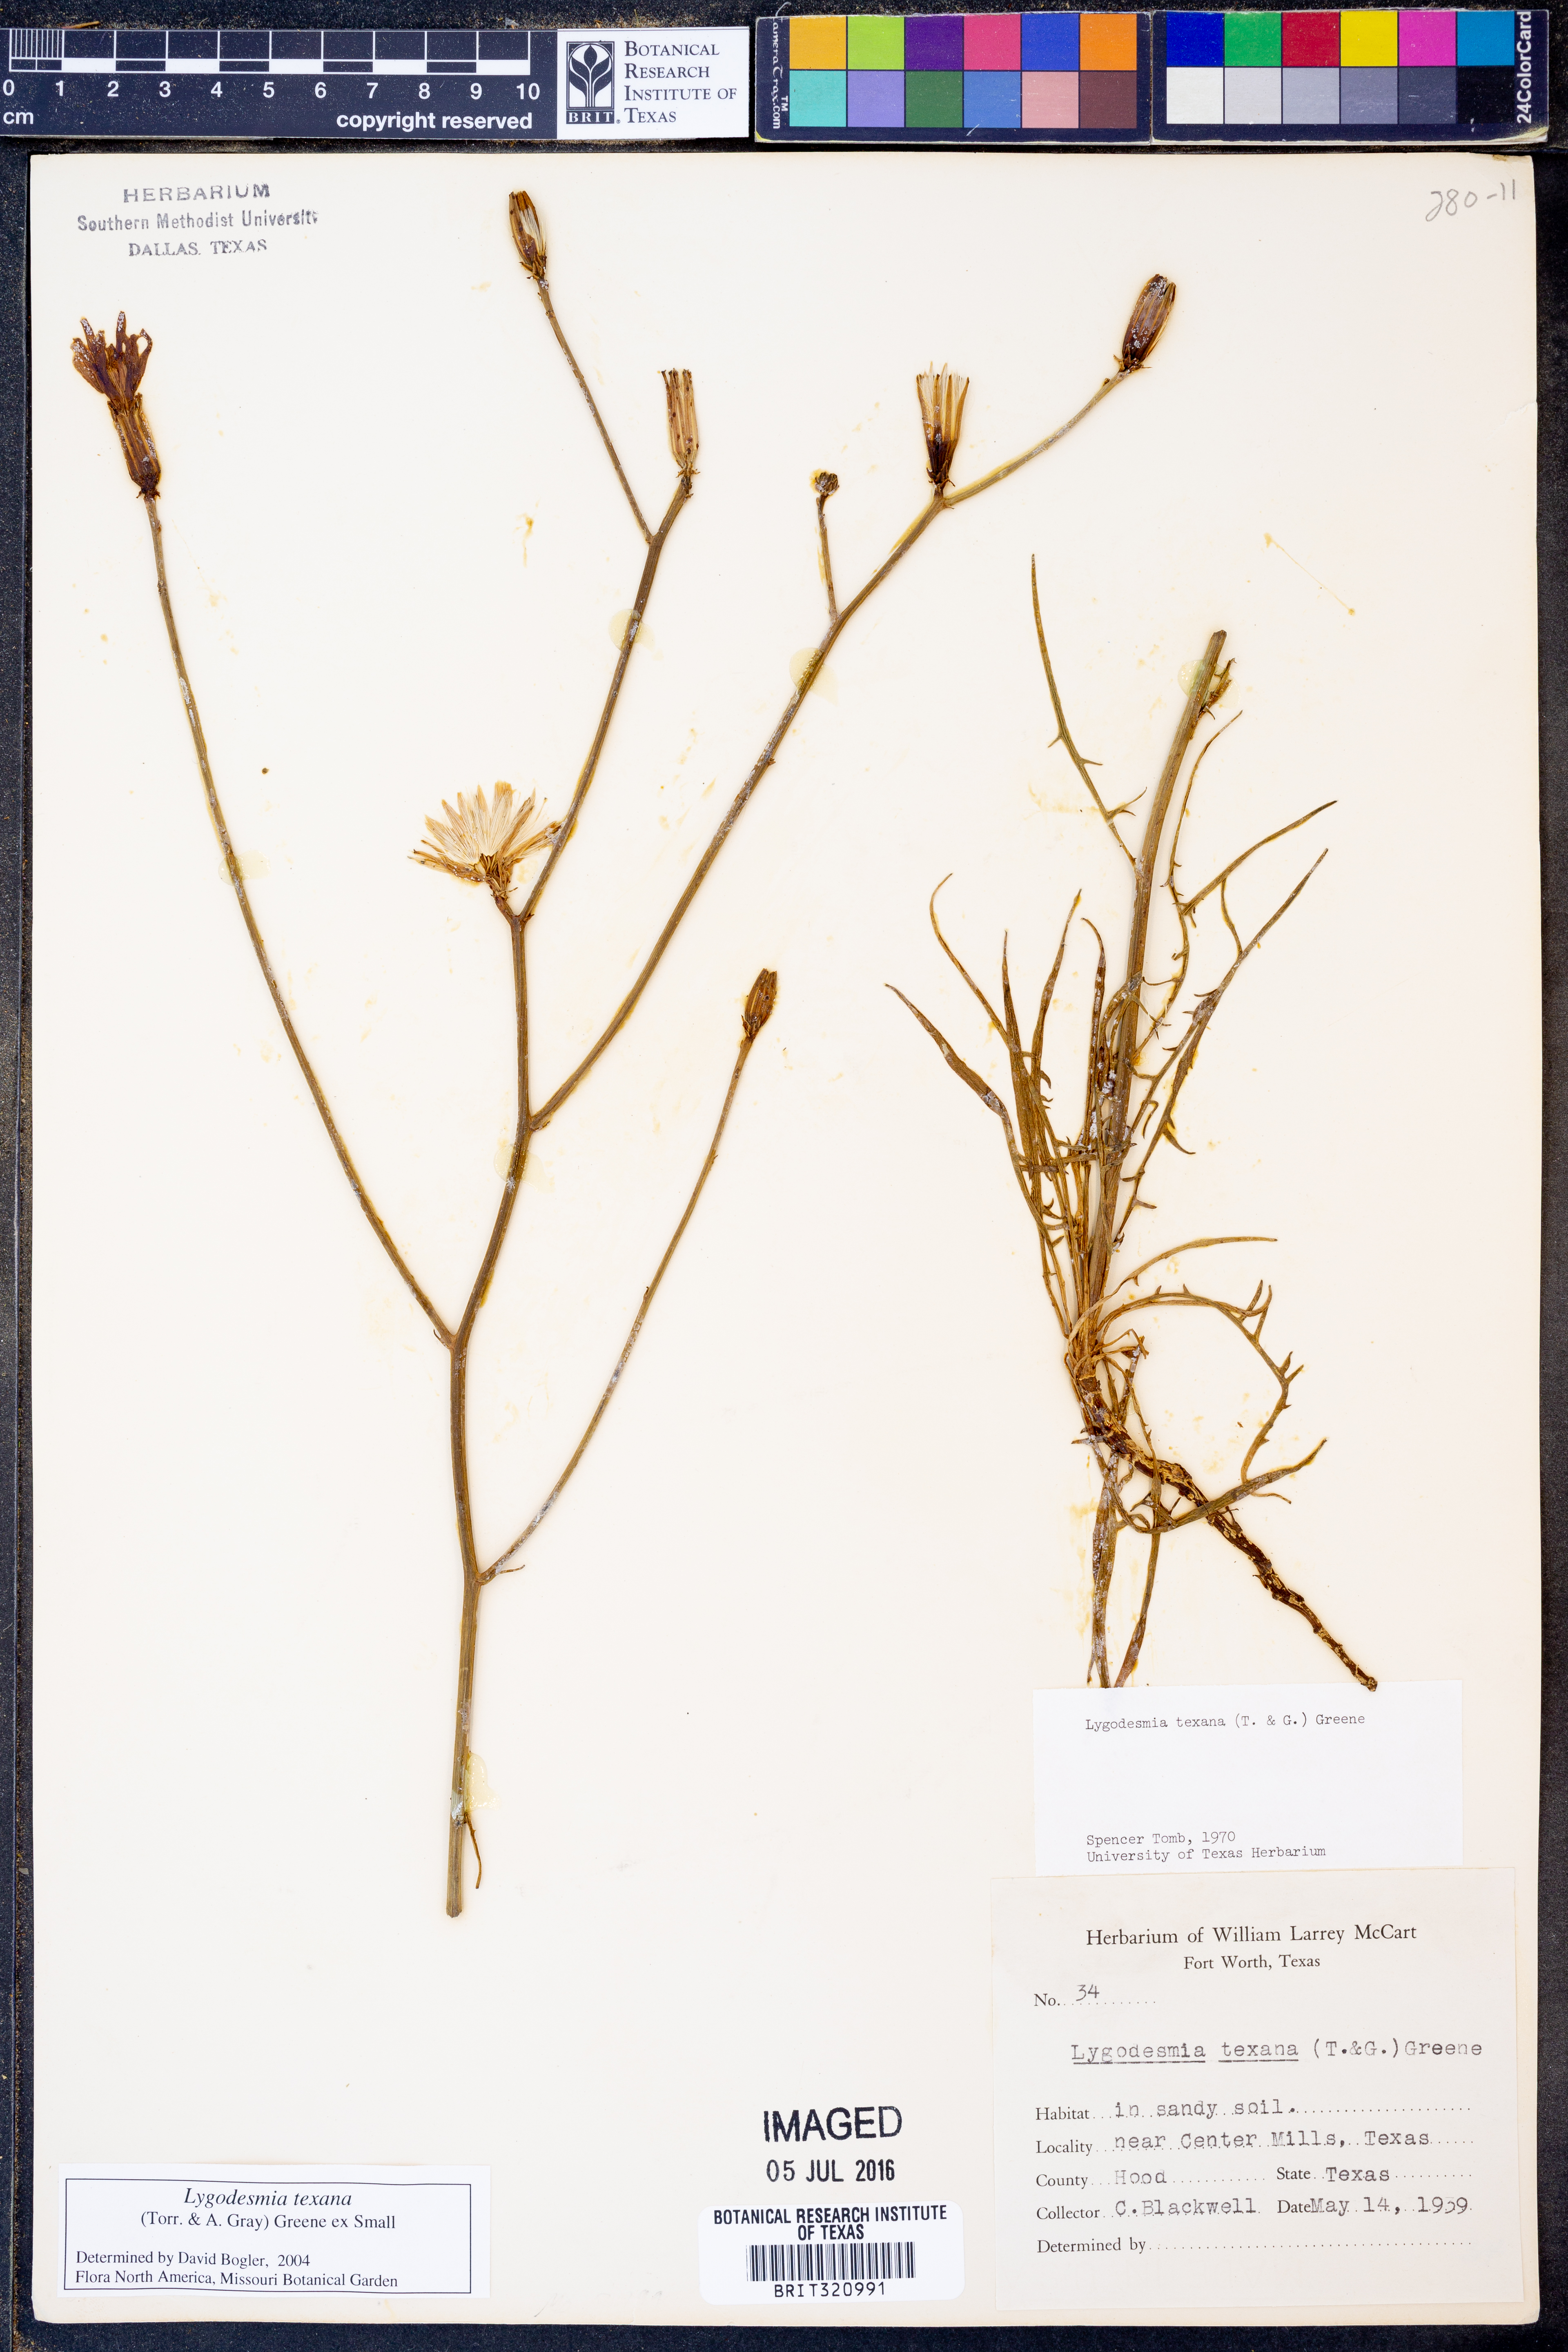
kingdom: Plantae
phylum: Tracheophyta
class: Magnoliopsida
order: Asterales
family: Asteraceae
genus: Lygodesmia
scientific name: Lygodesmia texana
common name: Texas skeleton-plant
